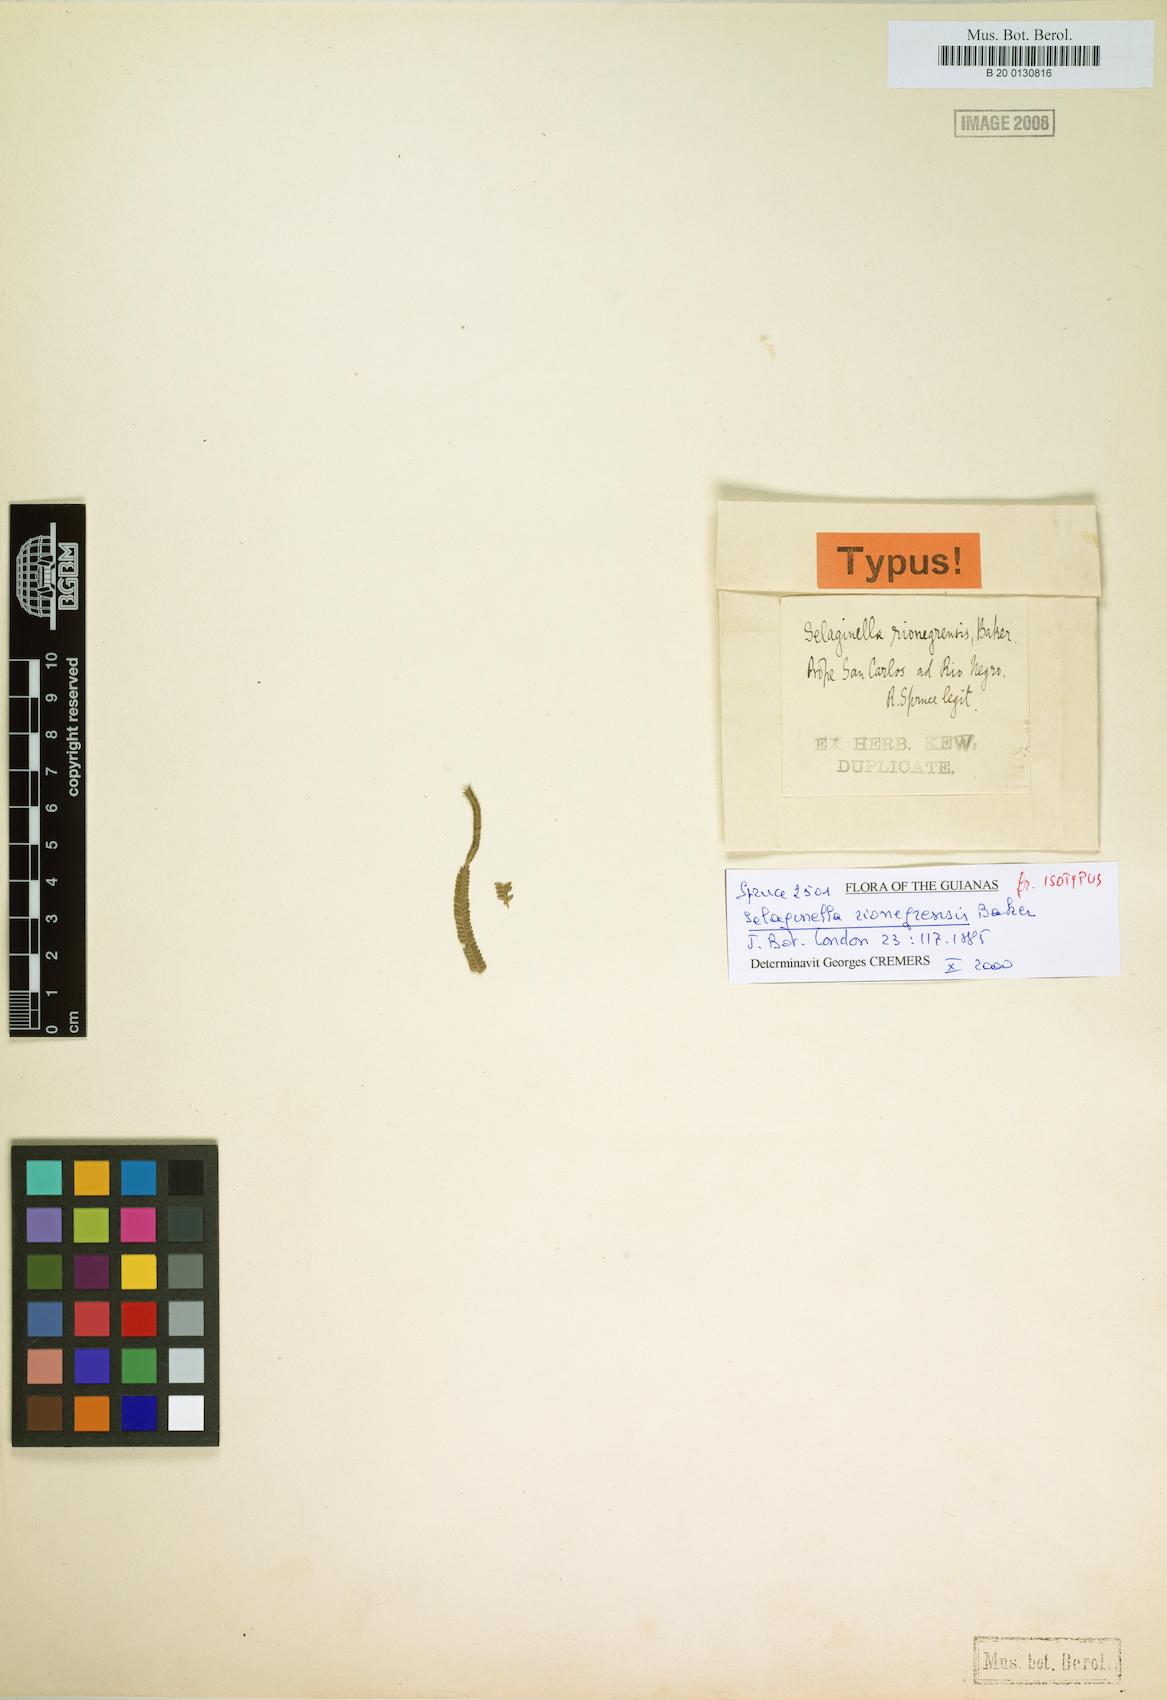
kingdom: Plantae
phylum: Tracheophyta
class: Lycopodiopsida
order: Selaginellales
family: Selaginellaceae
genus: Selaginella
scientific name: Selaginella amazonica
